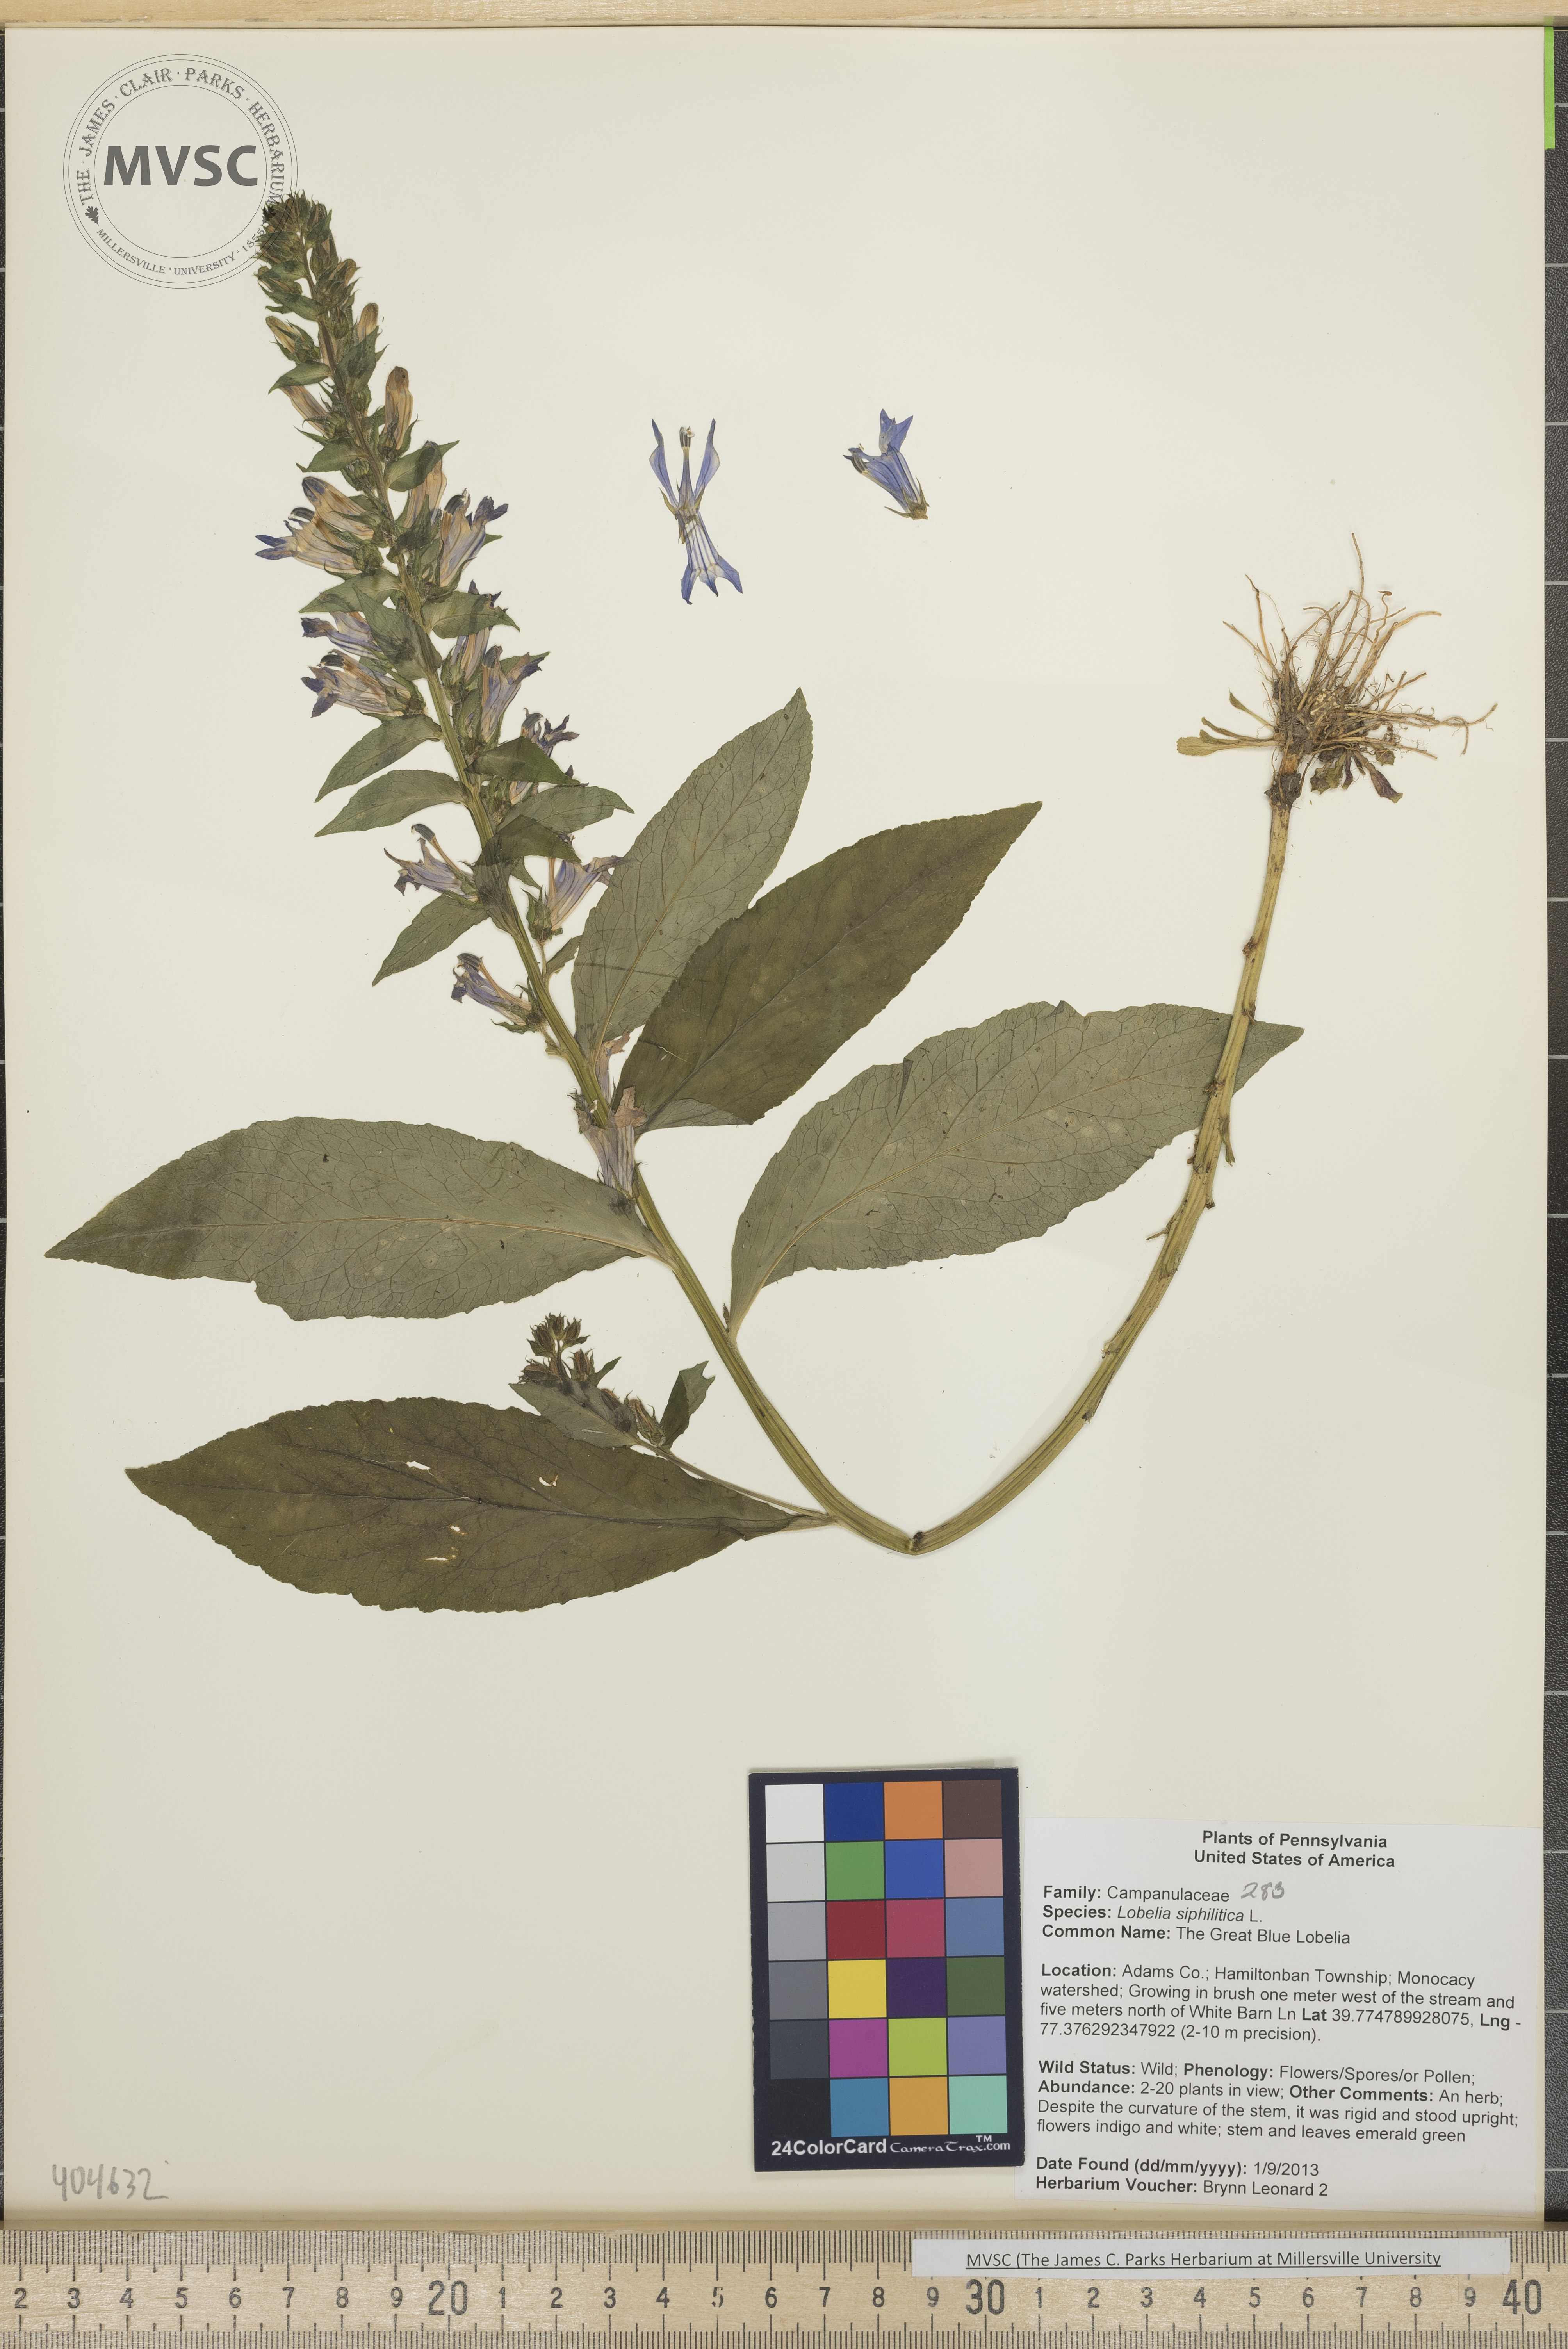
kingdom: Plantae
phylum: Tracheophyta
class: Magnoliopsida
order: Asterales
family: Campanulaceae
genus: Lobelia
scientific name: Lobelia siphilitica
